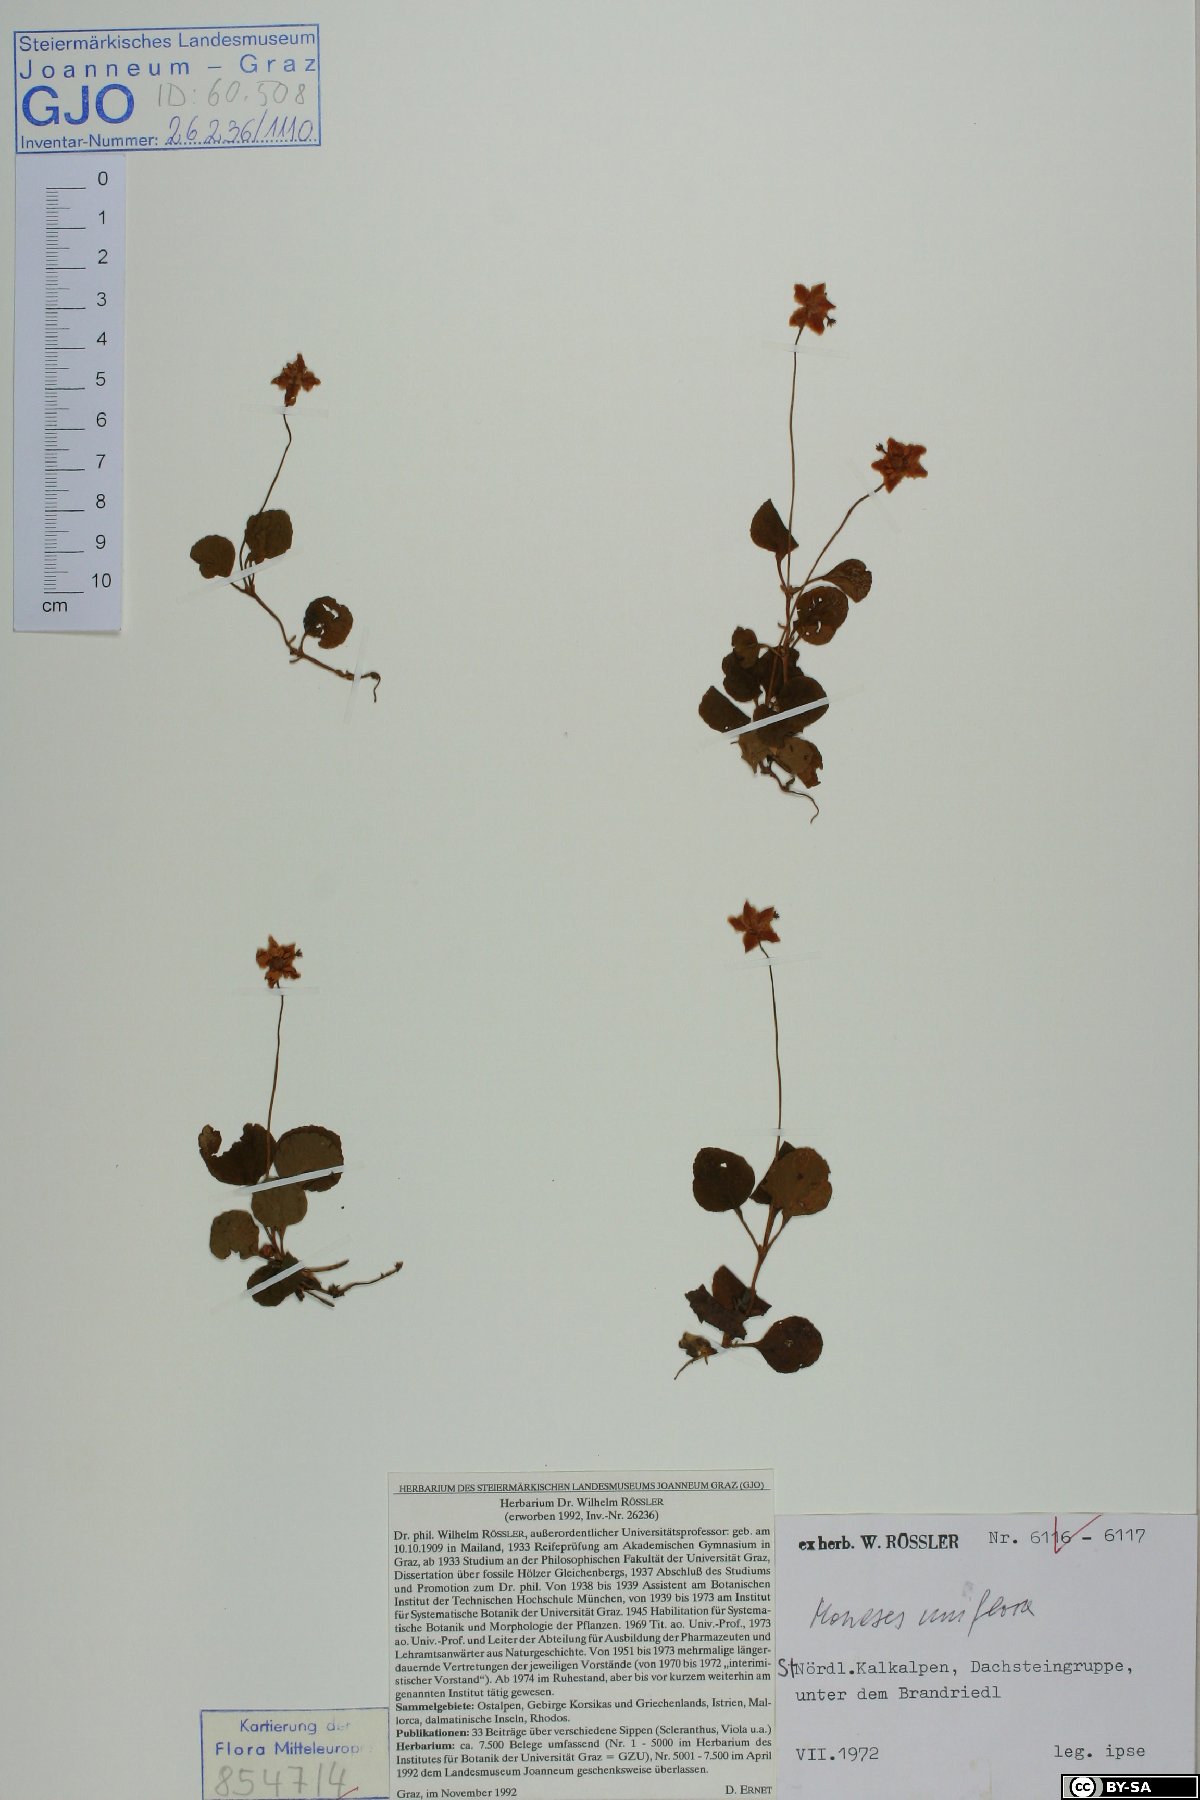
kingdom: Plantae
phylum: Tracheophyta
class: Magnoliopsida
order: Ericales
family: Ericaceae
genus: Moneses
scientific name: Moneses uniflora
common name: One-flowered wintergreen
